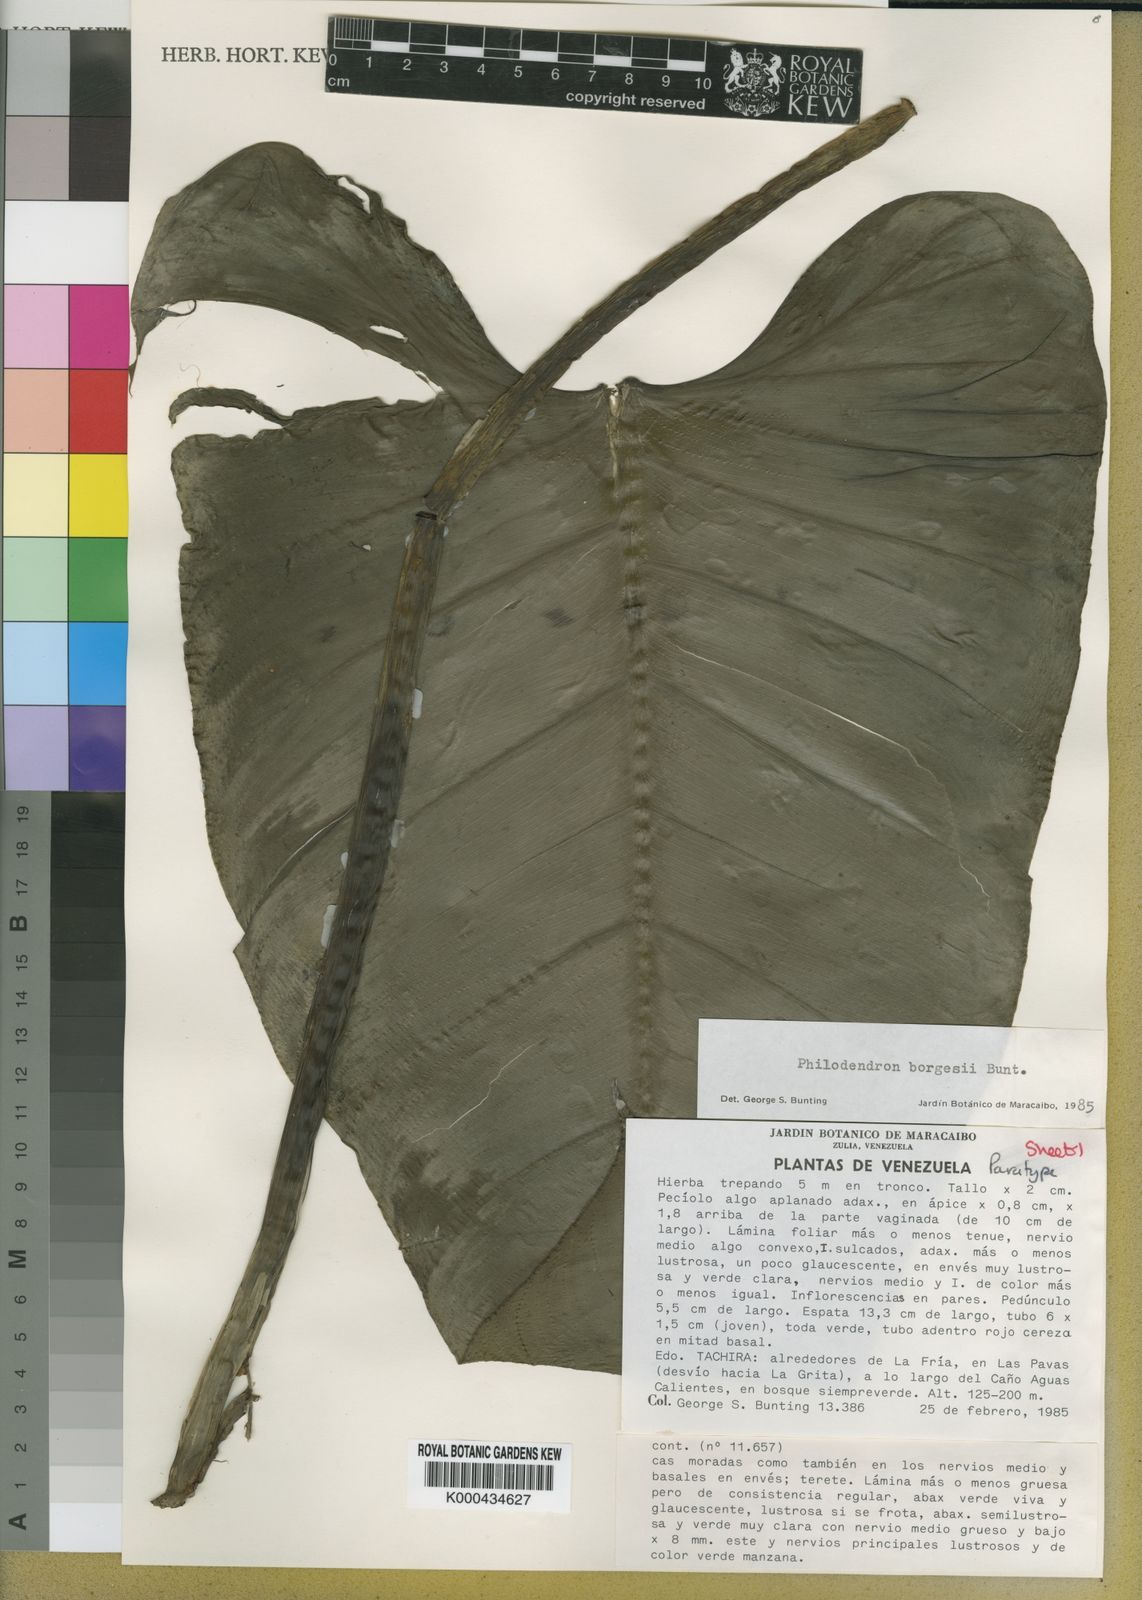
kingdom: Plantae
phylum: Tracheophyta
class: Liliopsida
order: Alismatales
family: Araceae
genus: Philodendron
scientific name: Philodendron borgesii
